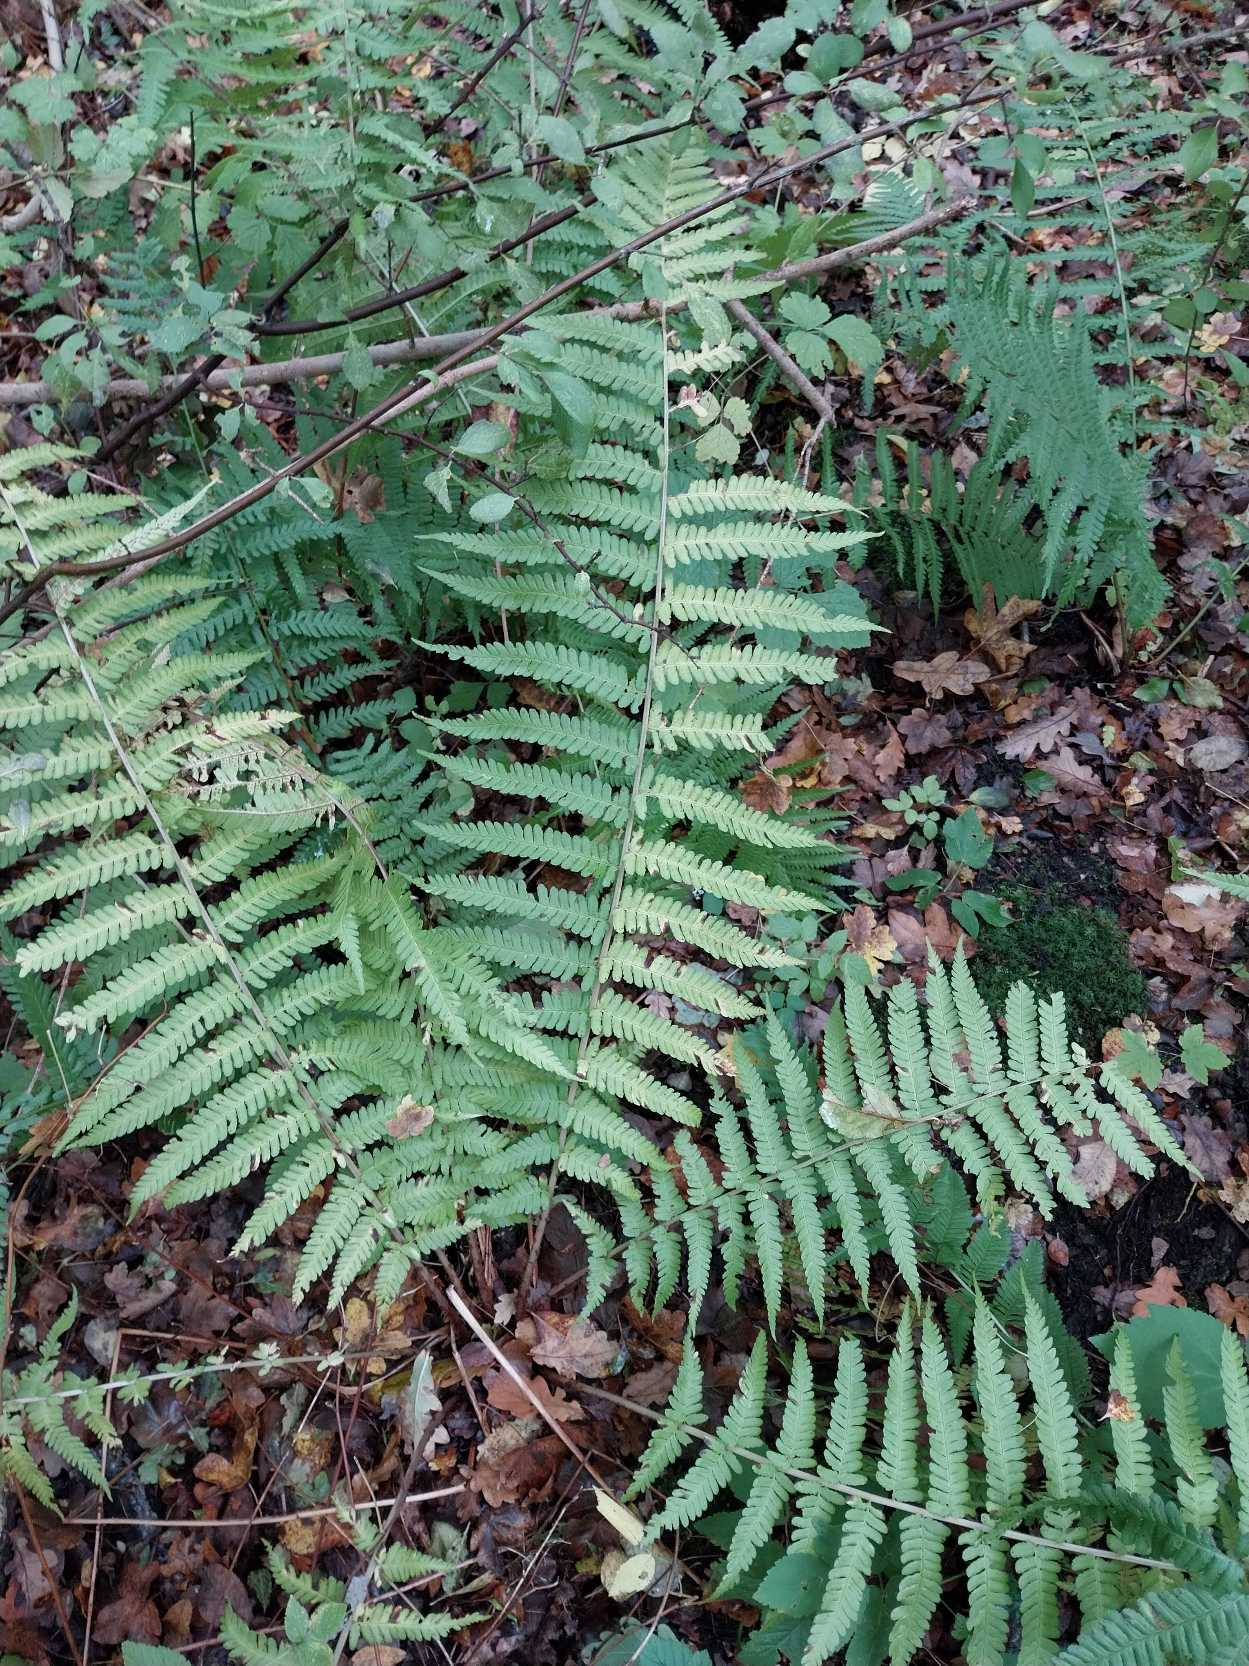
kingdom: Plantae
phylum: Tracheophyta
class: Polypodiopsida
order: Polypodiales
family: Dryopteridaceae
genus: Dryopteris
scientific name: Dryopteris filix-mas
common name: Almindelig mangeløv
